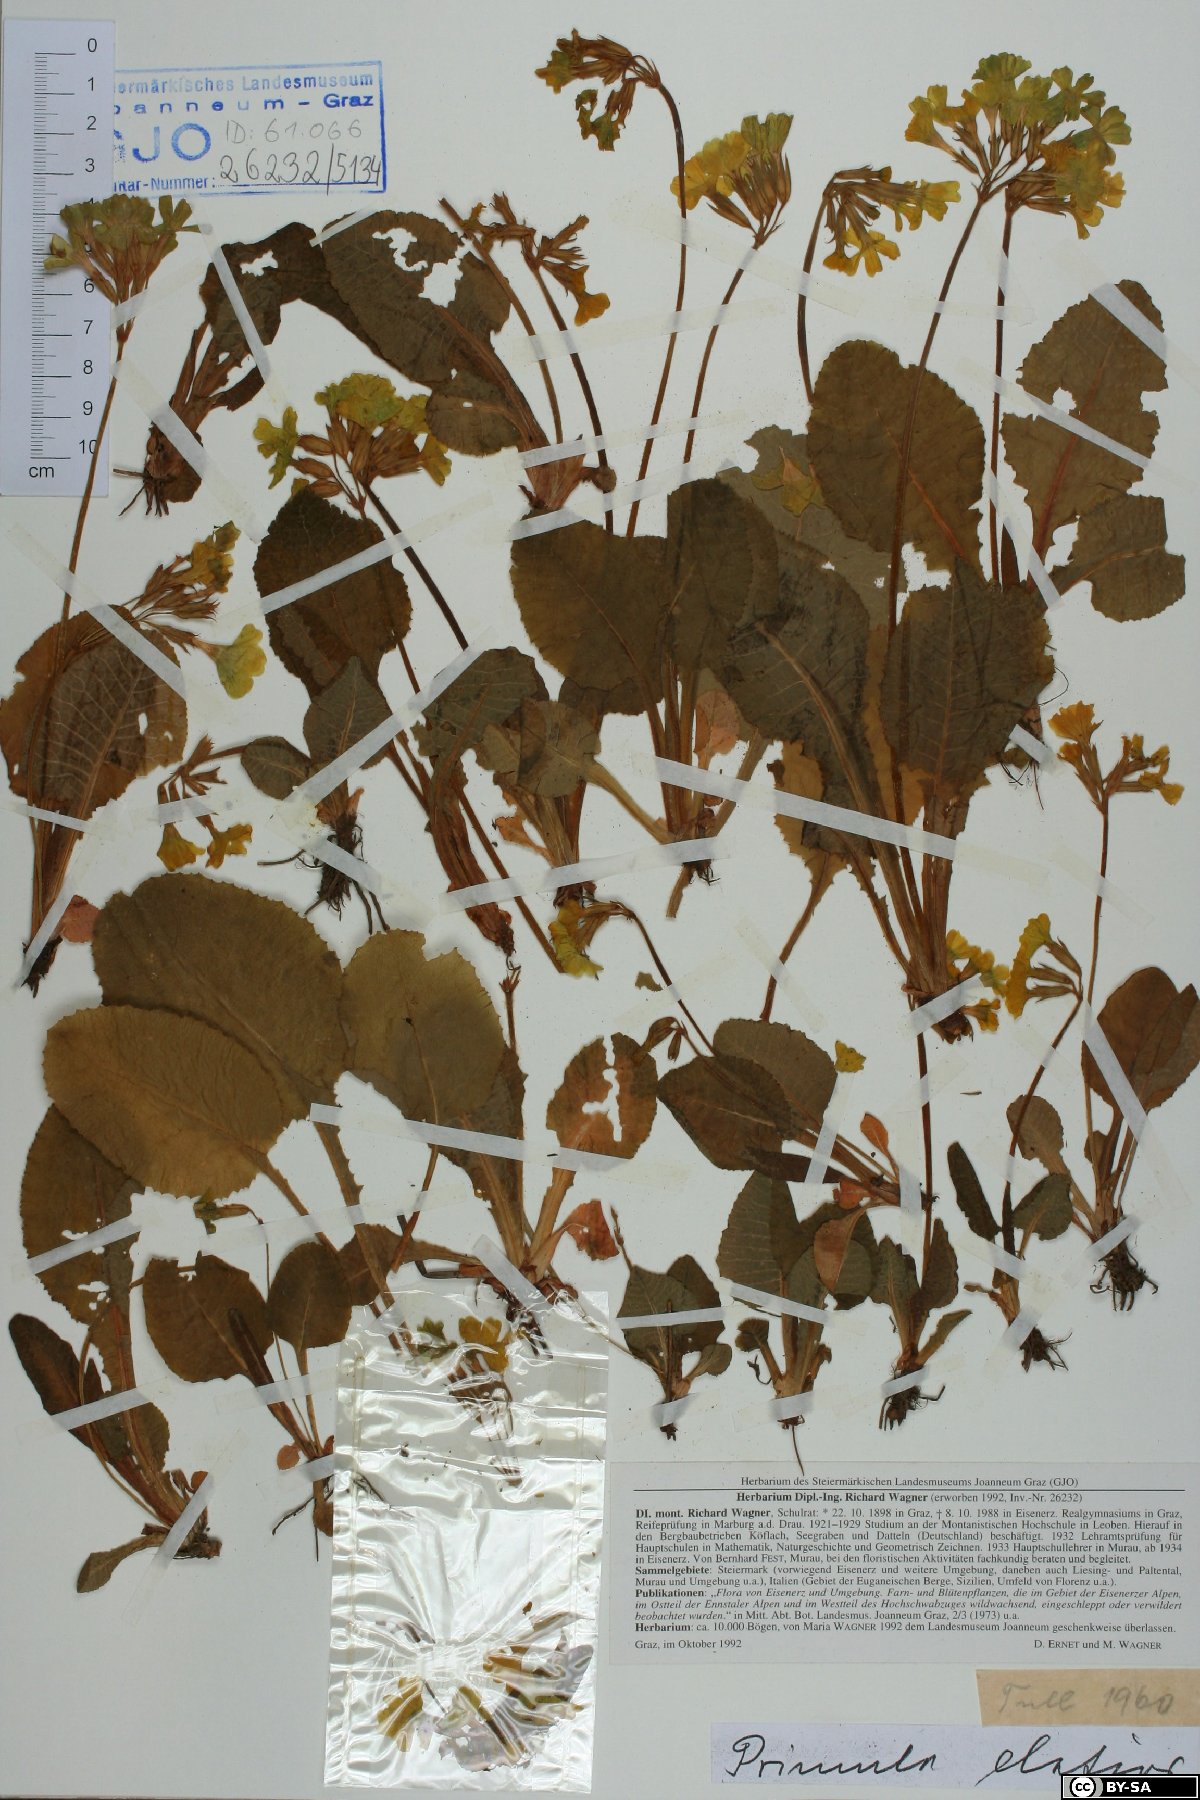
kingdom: Plantae
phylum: Tracheophyta
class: Magnoliopsida
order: Ericales
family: Primulaceae
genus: Primula
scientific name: Primula elatior
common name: Oxlip
